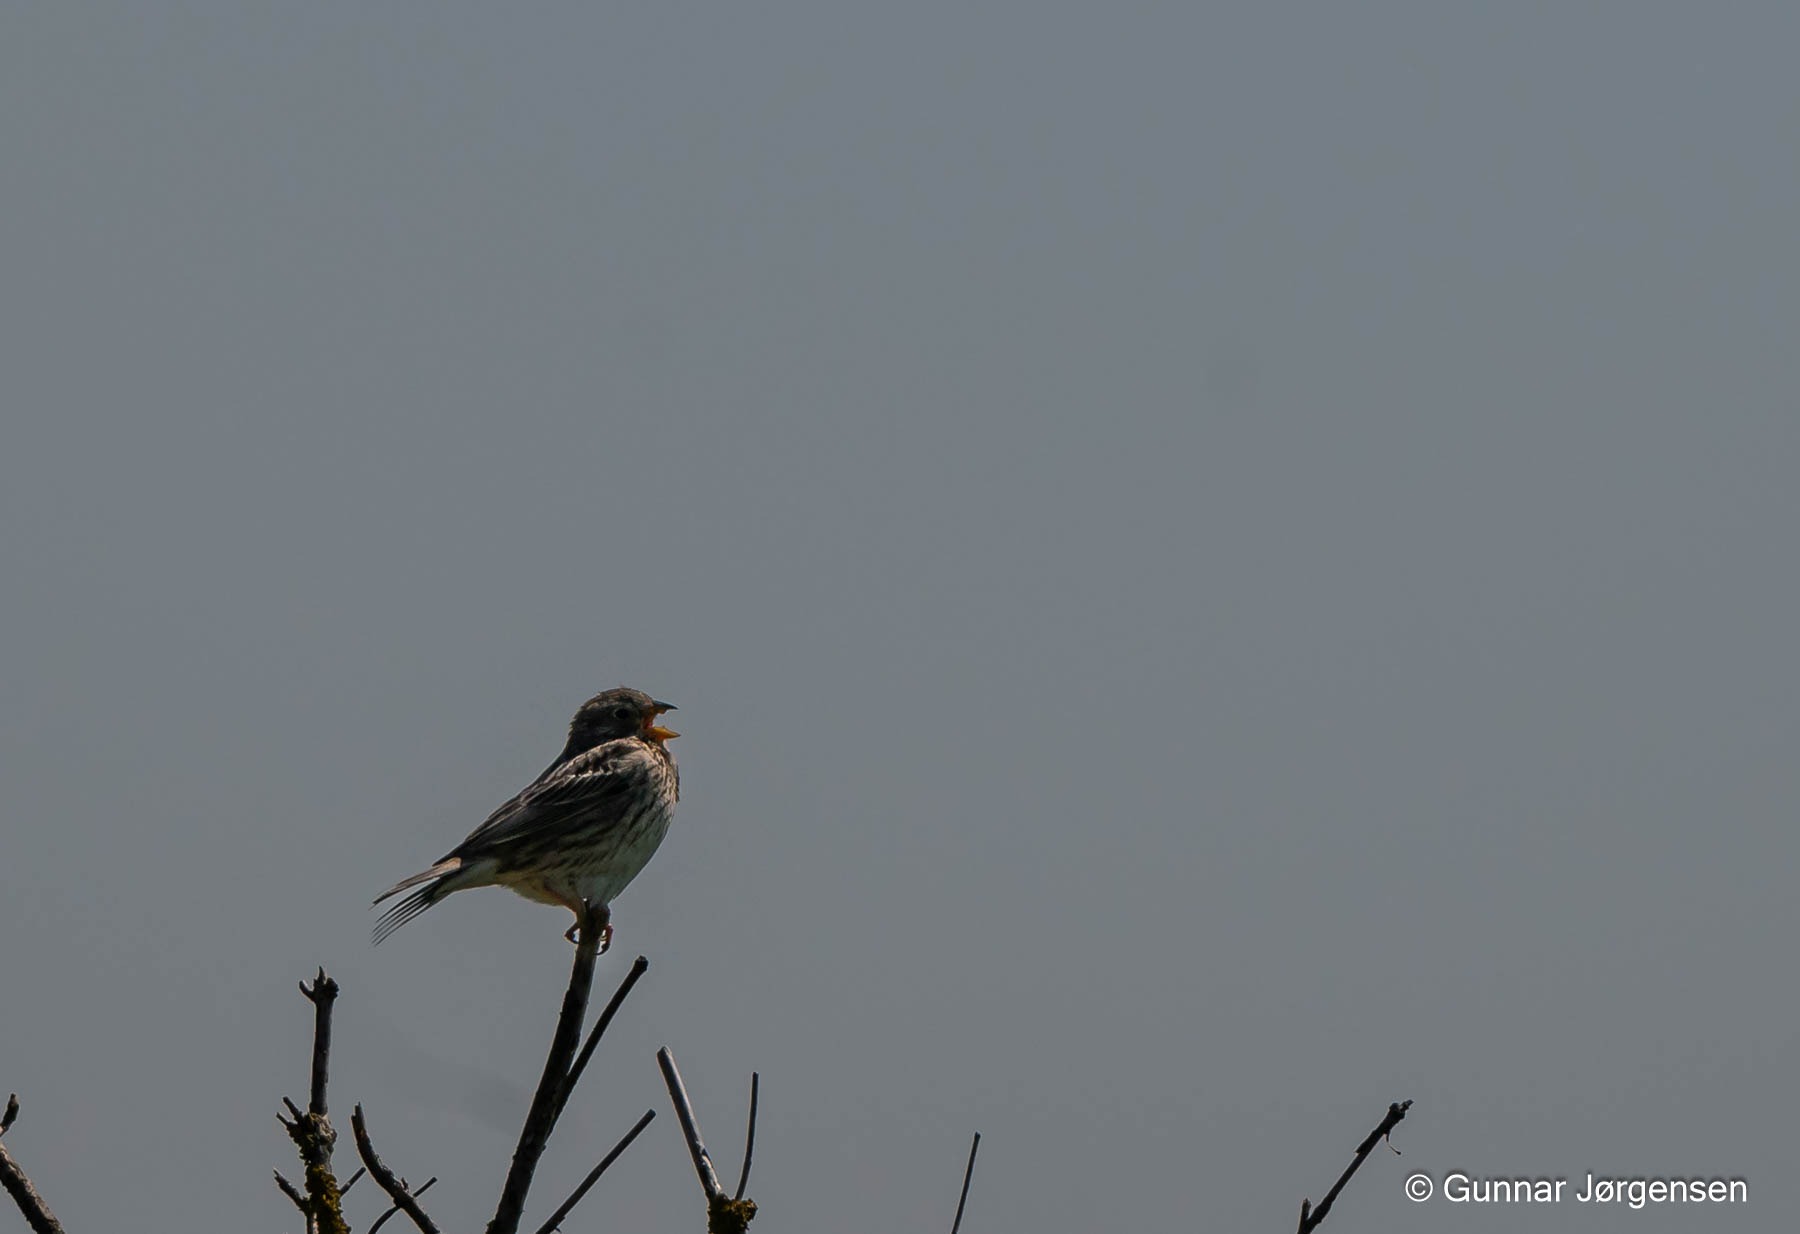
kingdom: Animalia
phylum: Chordata
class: Aves
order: Passeriformes
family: Emberizidae
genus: Emberiza
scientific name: Emberiza calandra
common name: Bomlærke
